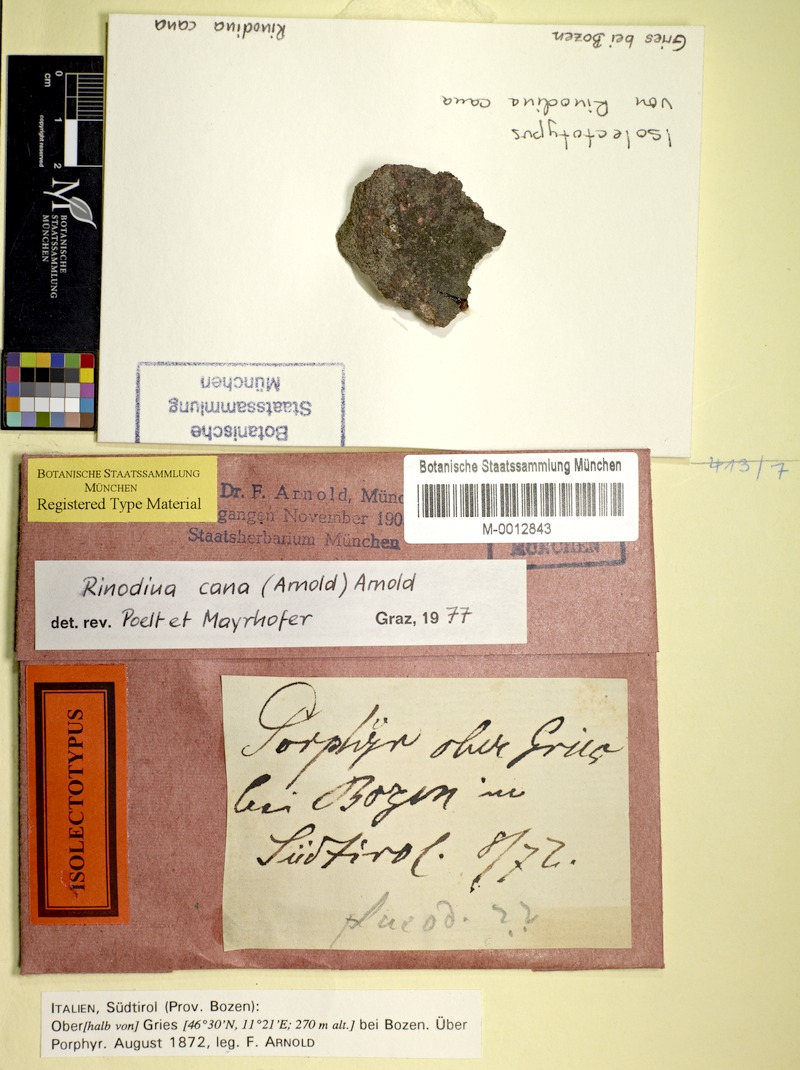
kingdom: Fungi
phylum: Ascomycota
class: Lecanoromycetes
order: Caliciales
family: Physciaceae
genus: Rinodina
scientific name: Rinodina cana
